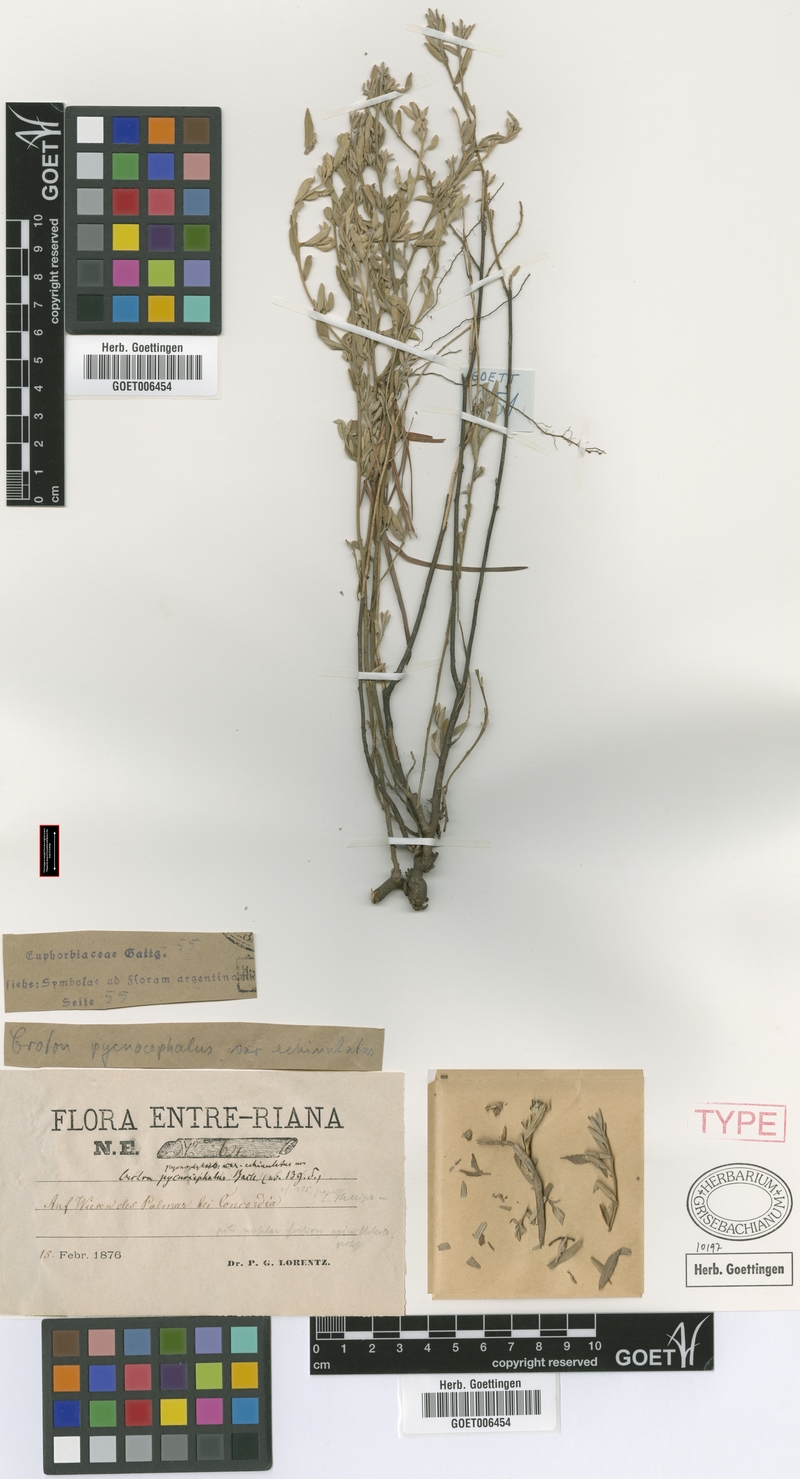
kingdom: Plantae
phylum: Tracheophyta
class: Magnoliopsida
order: Malpighiales
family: Euphorbiaceae
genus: Croton
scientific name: Croton echinulatus
